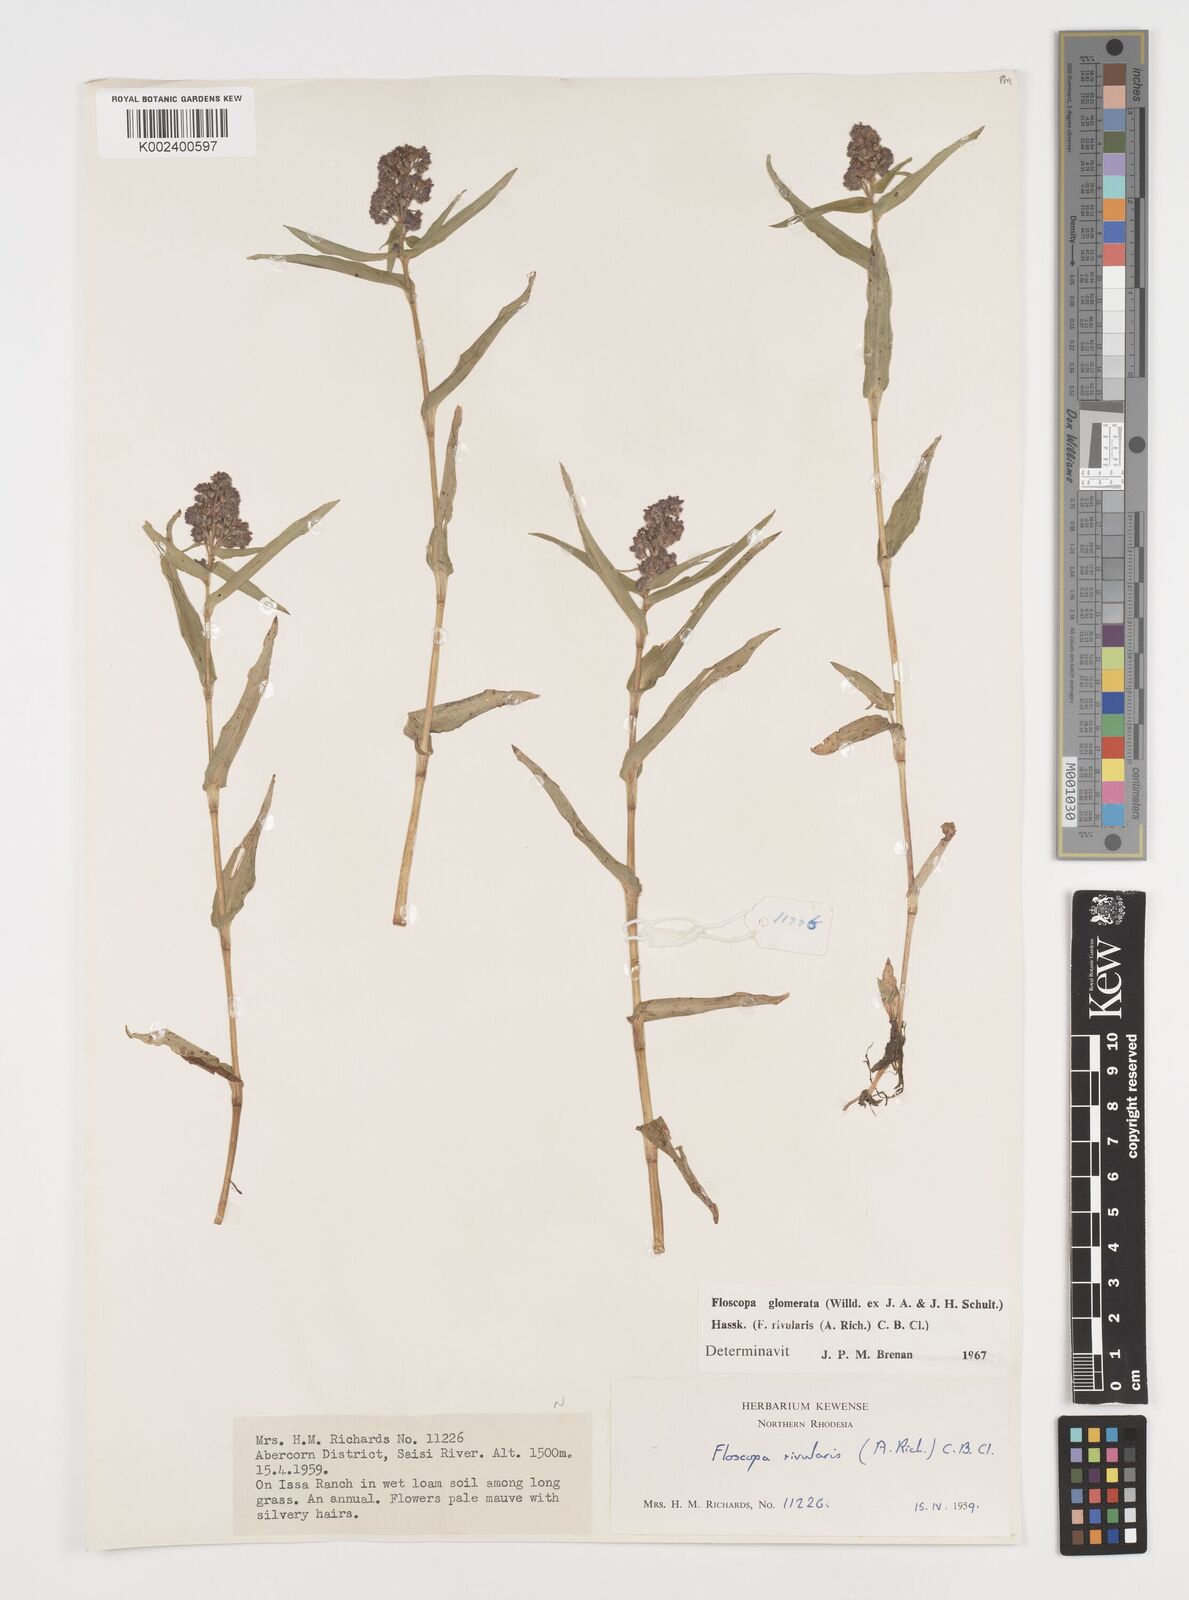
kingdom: Plantae
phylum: Tracheophyta
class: Liliopsida
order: Commelinales
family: Commelinaceae
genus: Floscopa
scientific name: Floscopa glomerata
